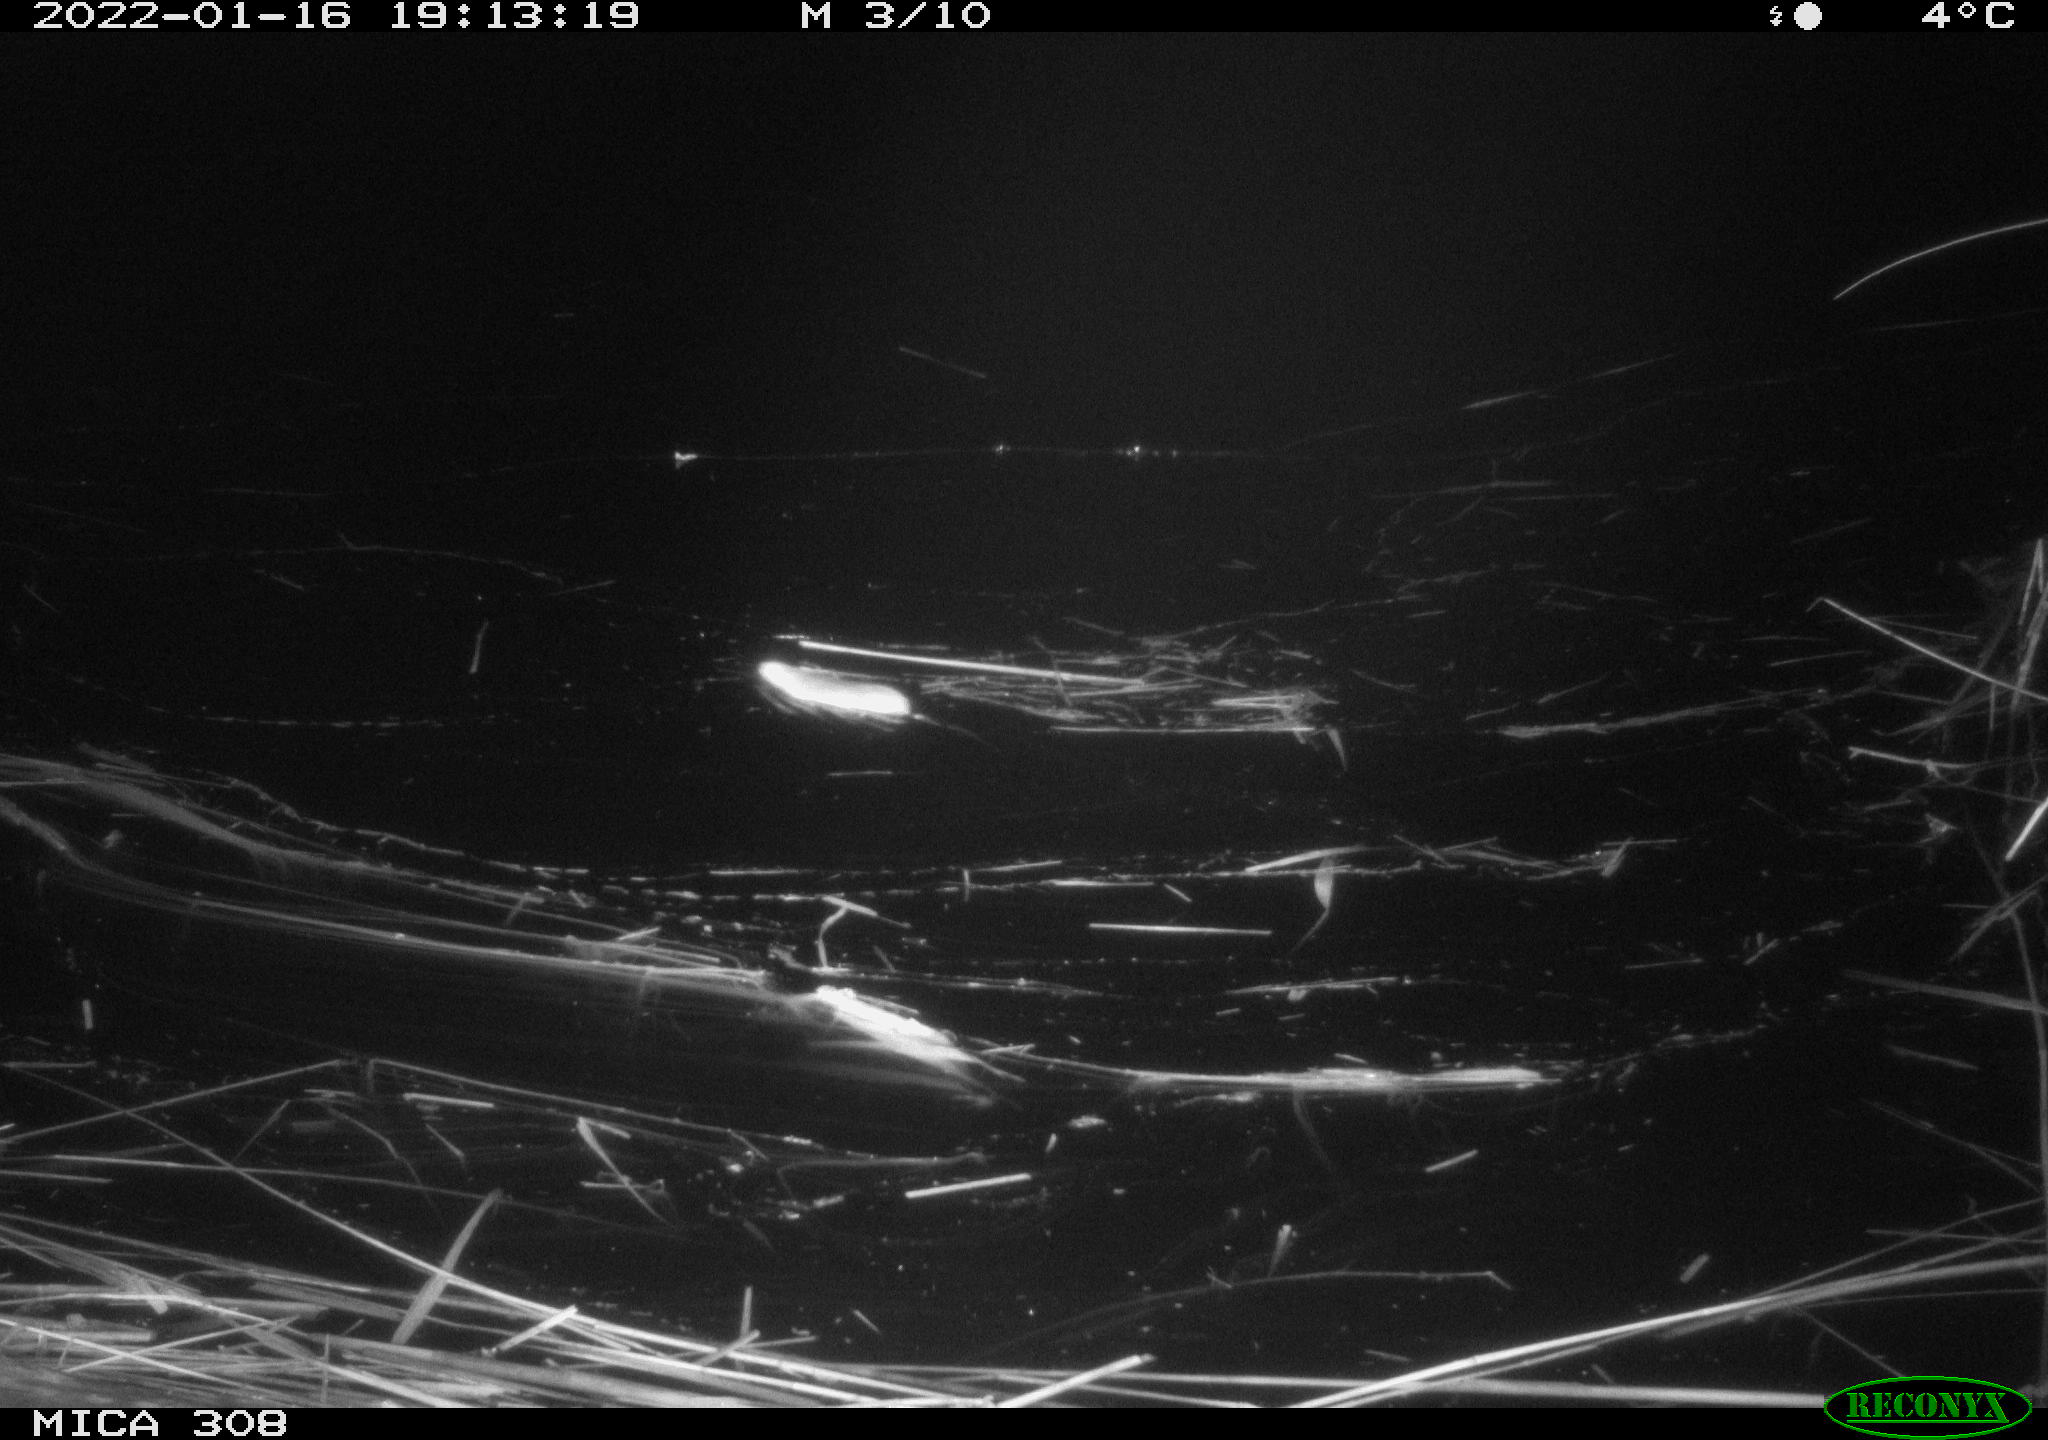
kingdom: Animalia
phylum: Chordata
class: Mammalia
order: Rodentia
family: Muridae
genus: Rattus
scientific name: Rattus norvegicus
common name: Brown rat
